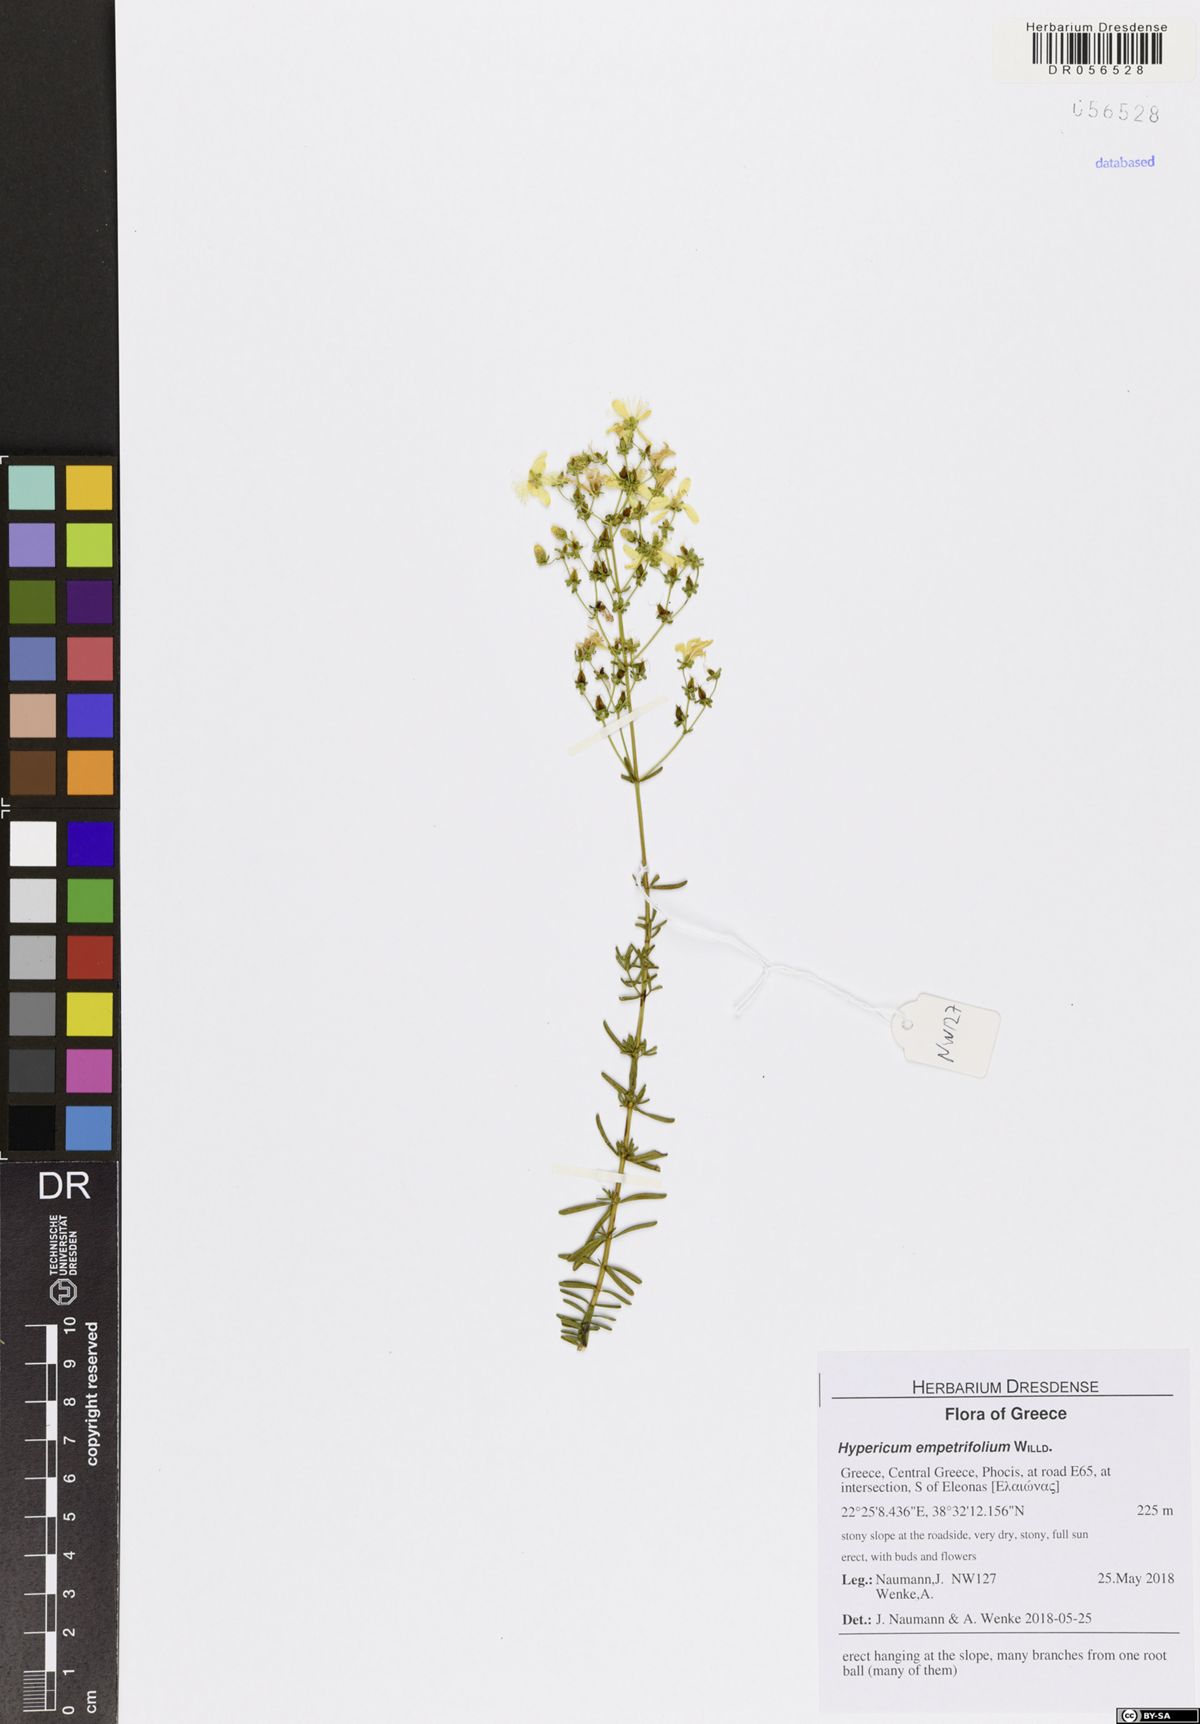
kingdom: Plantae
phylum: Tracheophyta
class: Magnoliopsida
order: Malpighiales
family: Hypericaceae
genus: Hypericum
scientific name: Hypericum empetrifolium
